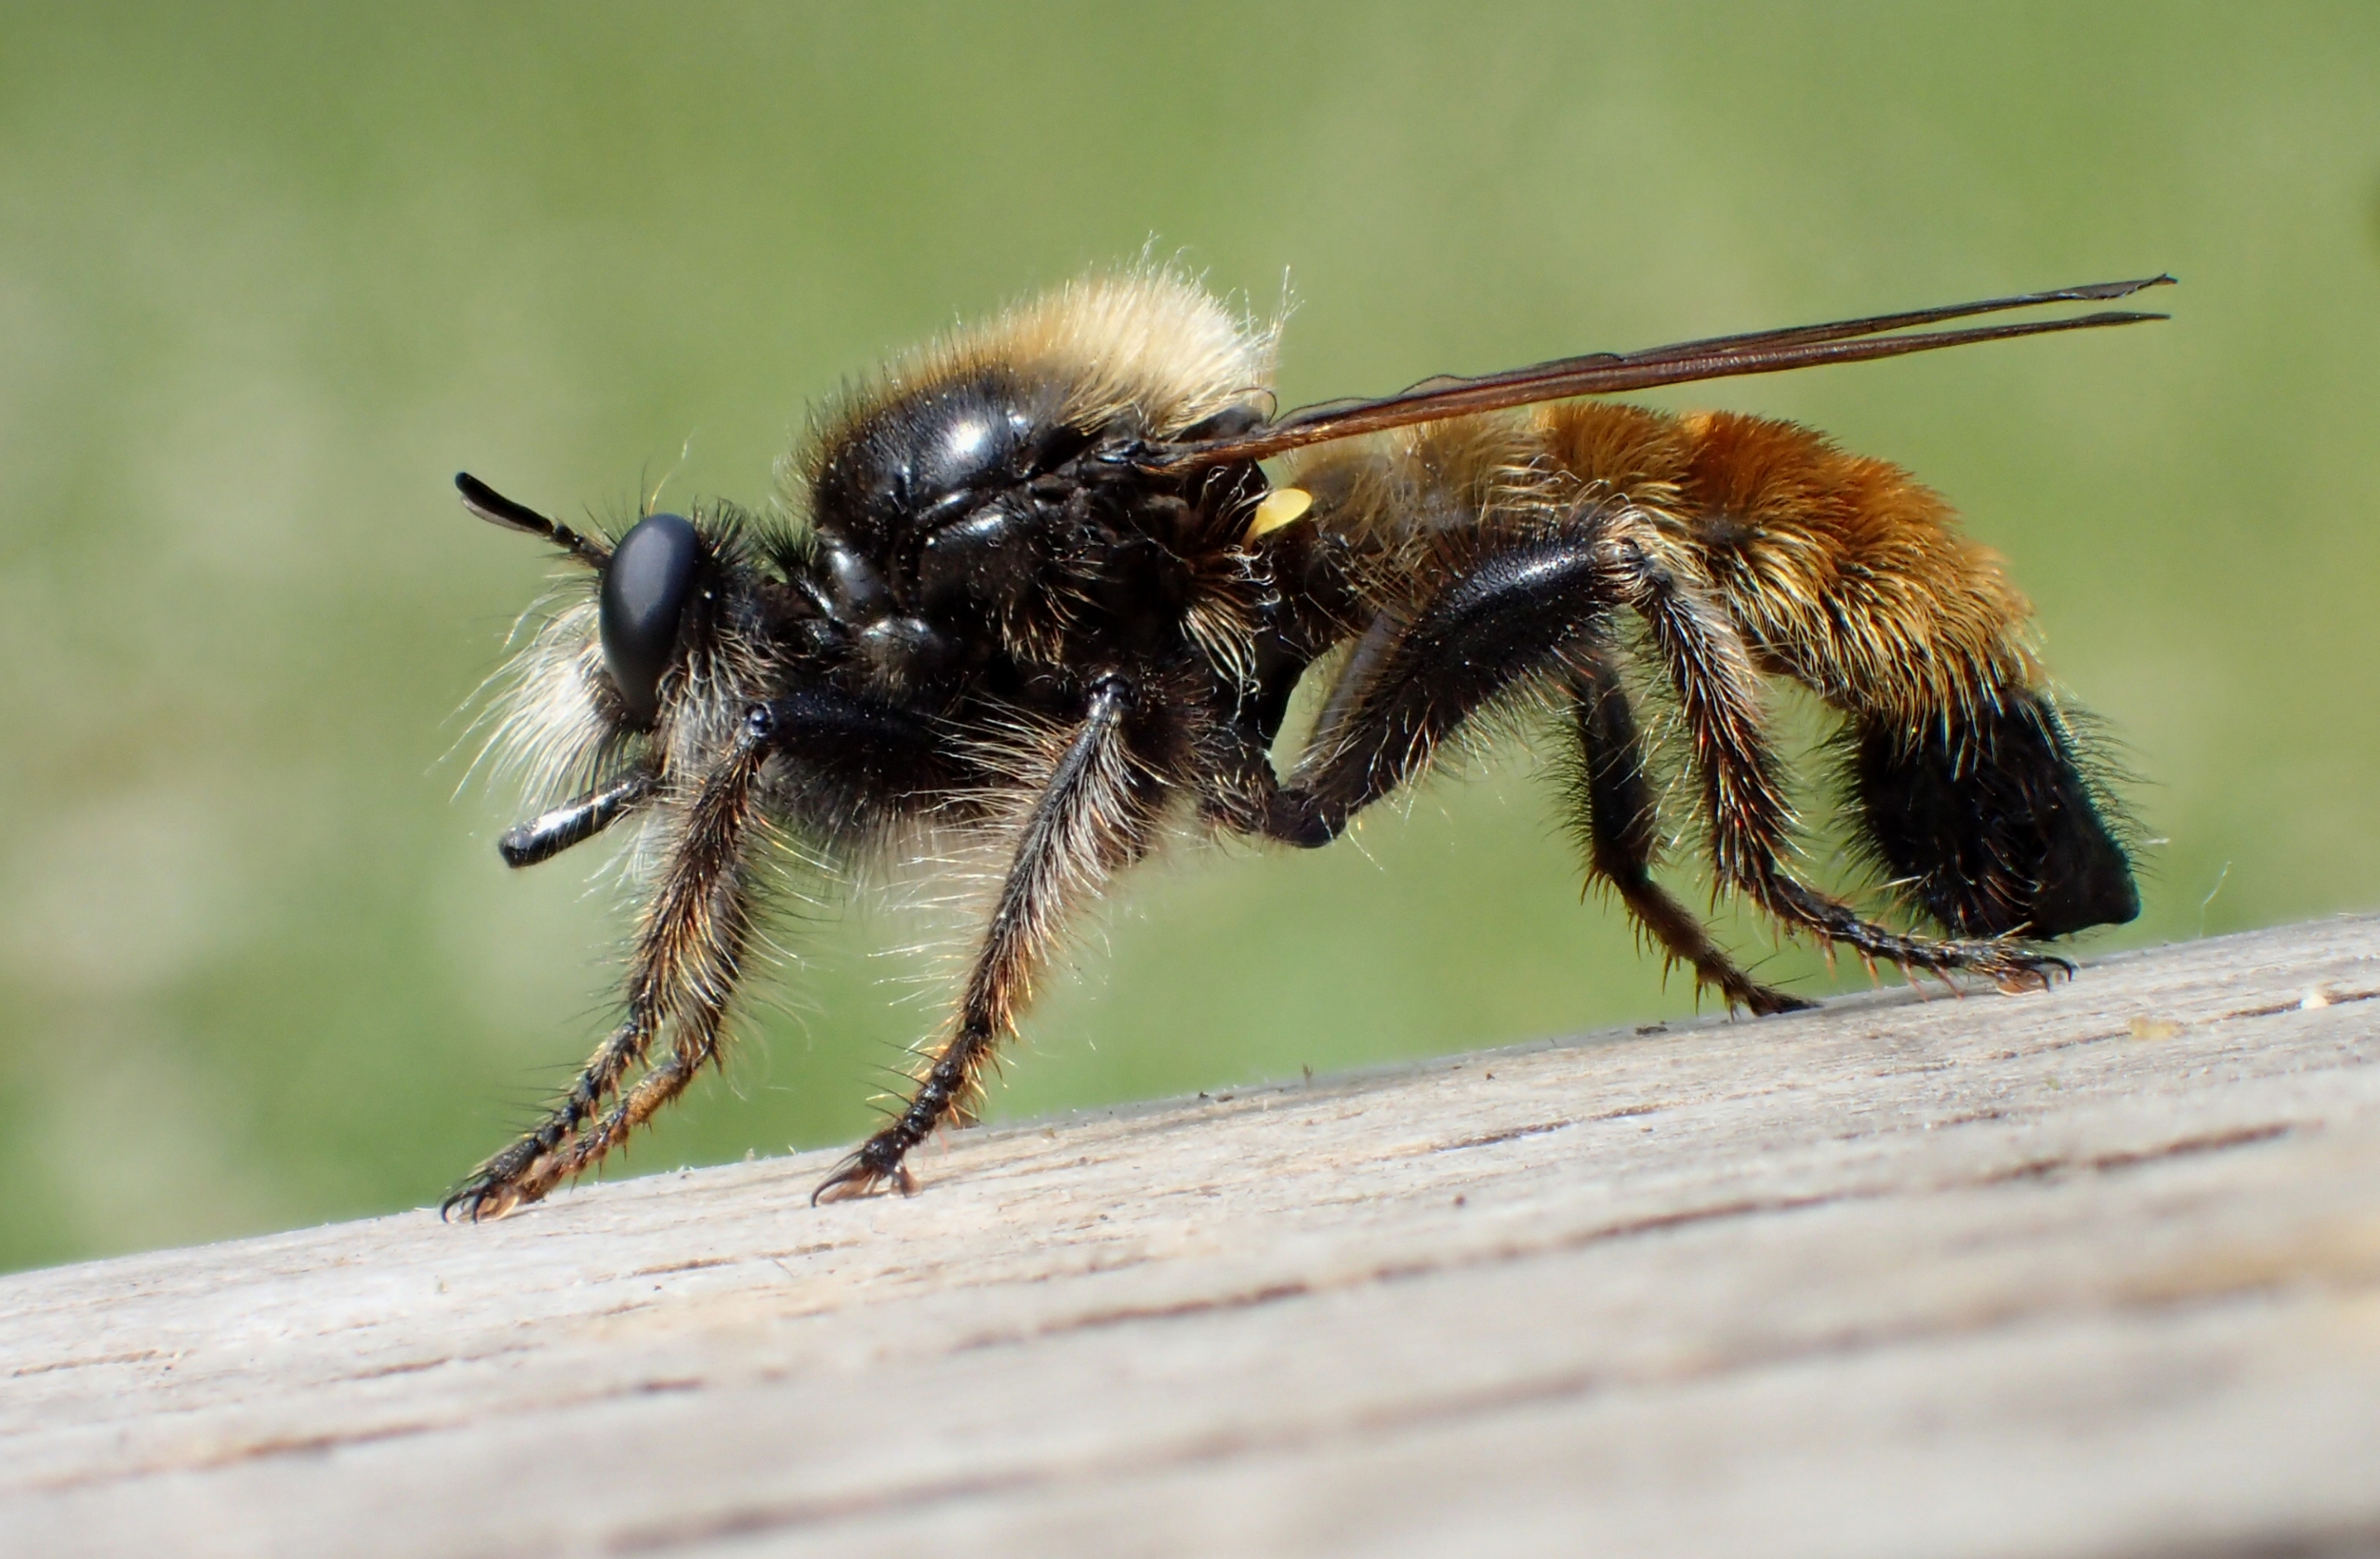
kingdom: Animalia
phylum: Arthropoda
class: Insecta
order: Diptera
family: Asilidae
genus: Laphria
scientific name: Laphria flava
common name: Gul vedrovflue
